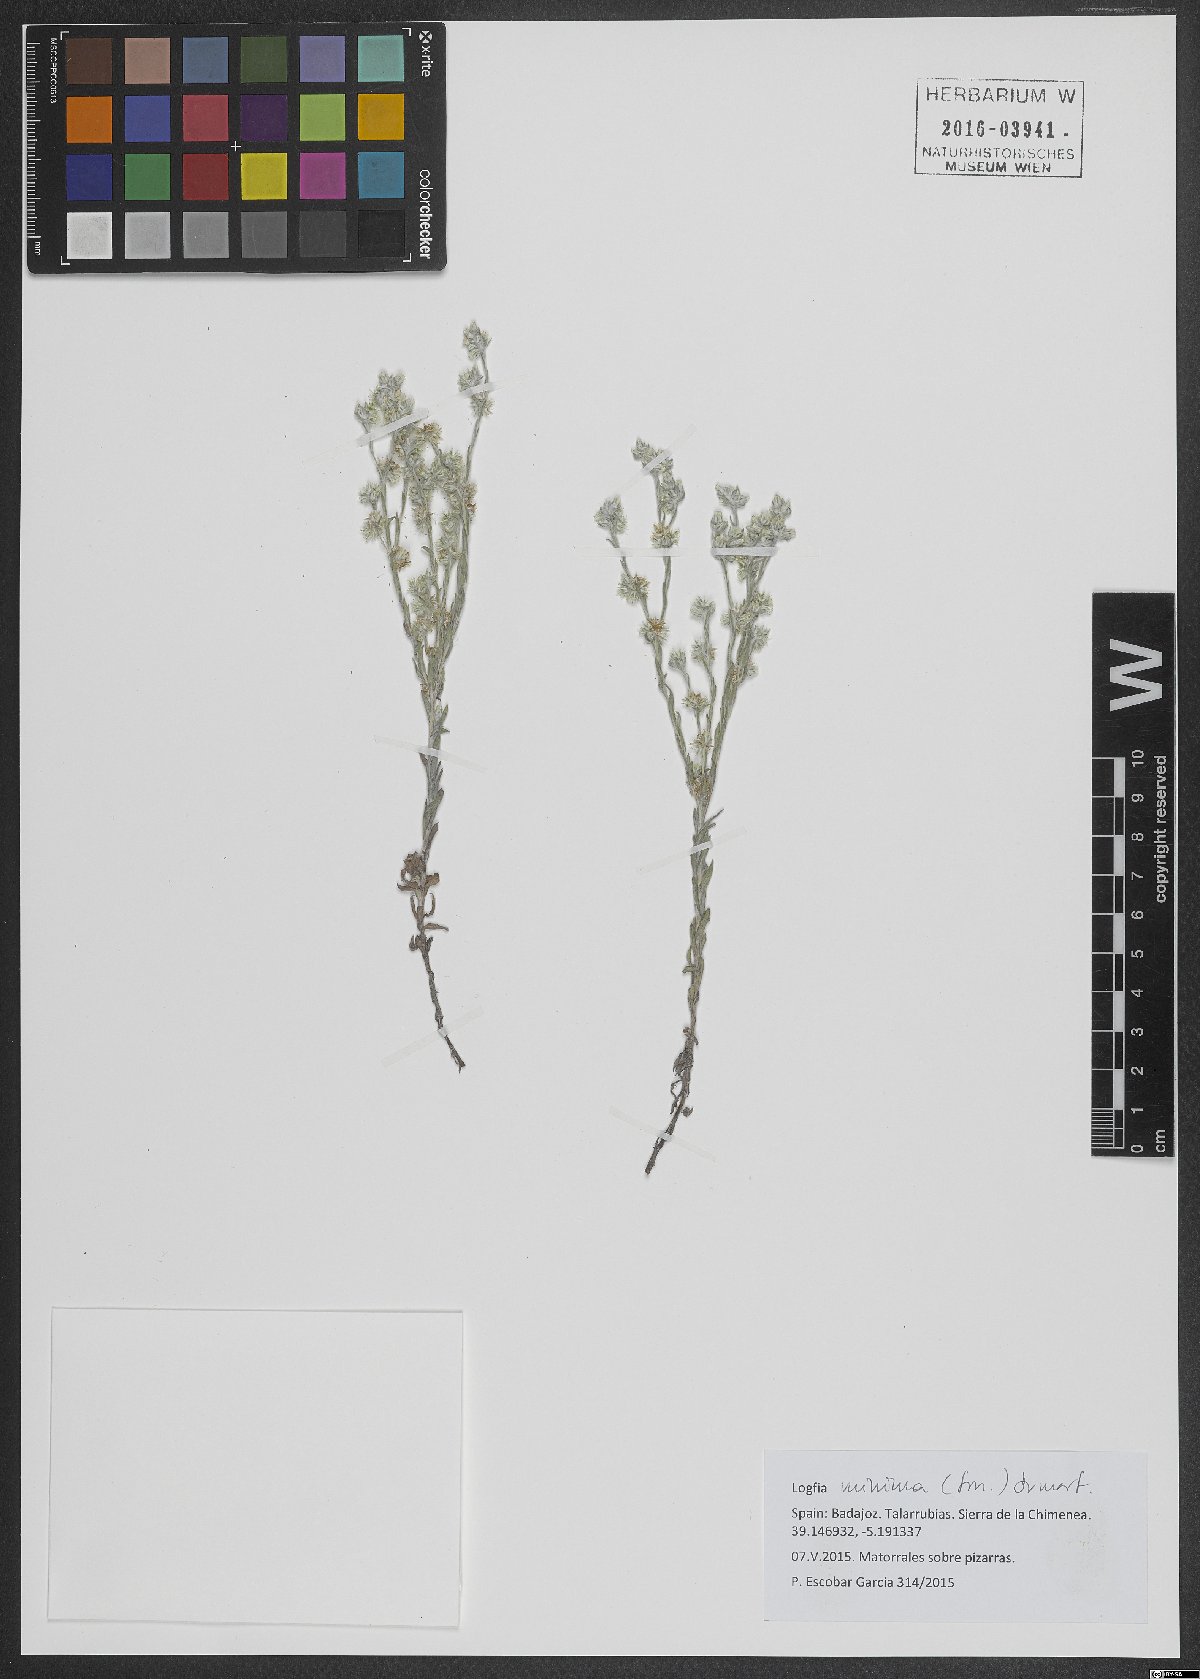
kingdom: Plantae
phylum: Tracheophyta
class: Magnoliopsida
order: Asterales
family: Asteraceae
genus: Logfia
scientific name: Logfia minima
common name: Little cottonrose
